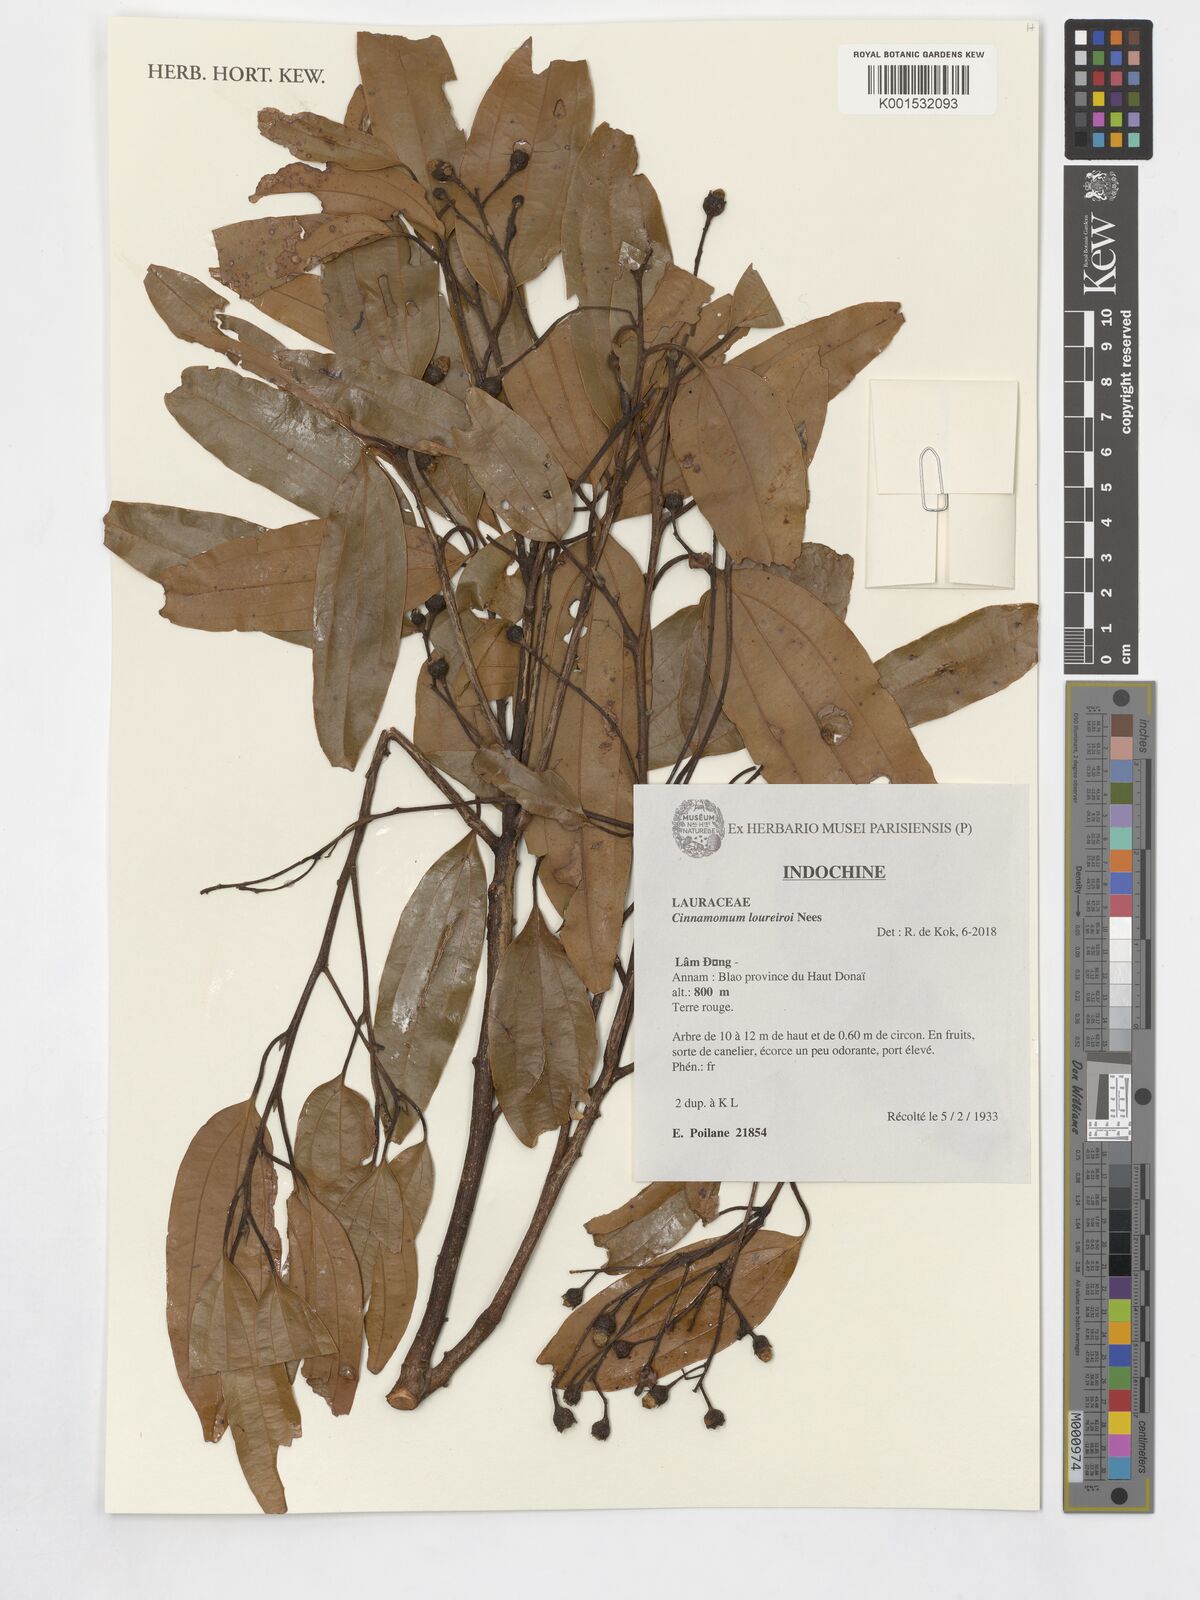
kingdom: Plantae
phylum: Tracheophyta
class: Magnoliopsida
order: Laurales
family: Lauraceae
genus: Cinnamomum
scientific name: Cinnamomum loureiroi
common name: Saigon cinnamon
